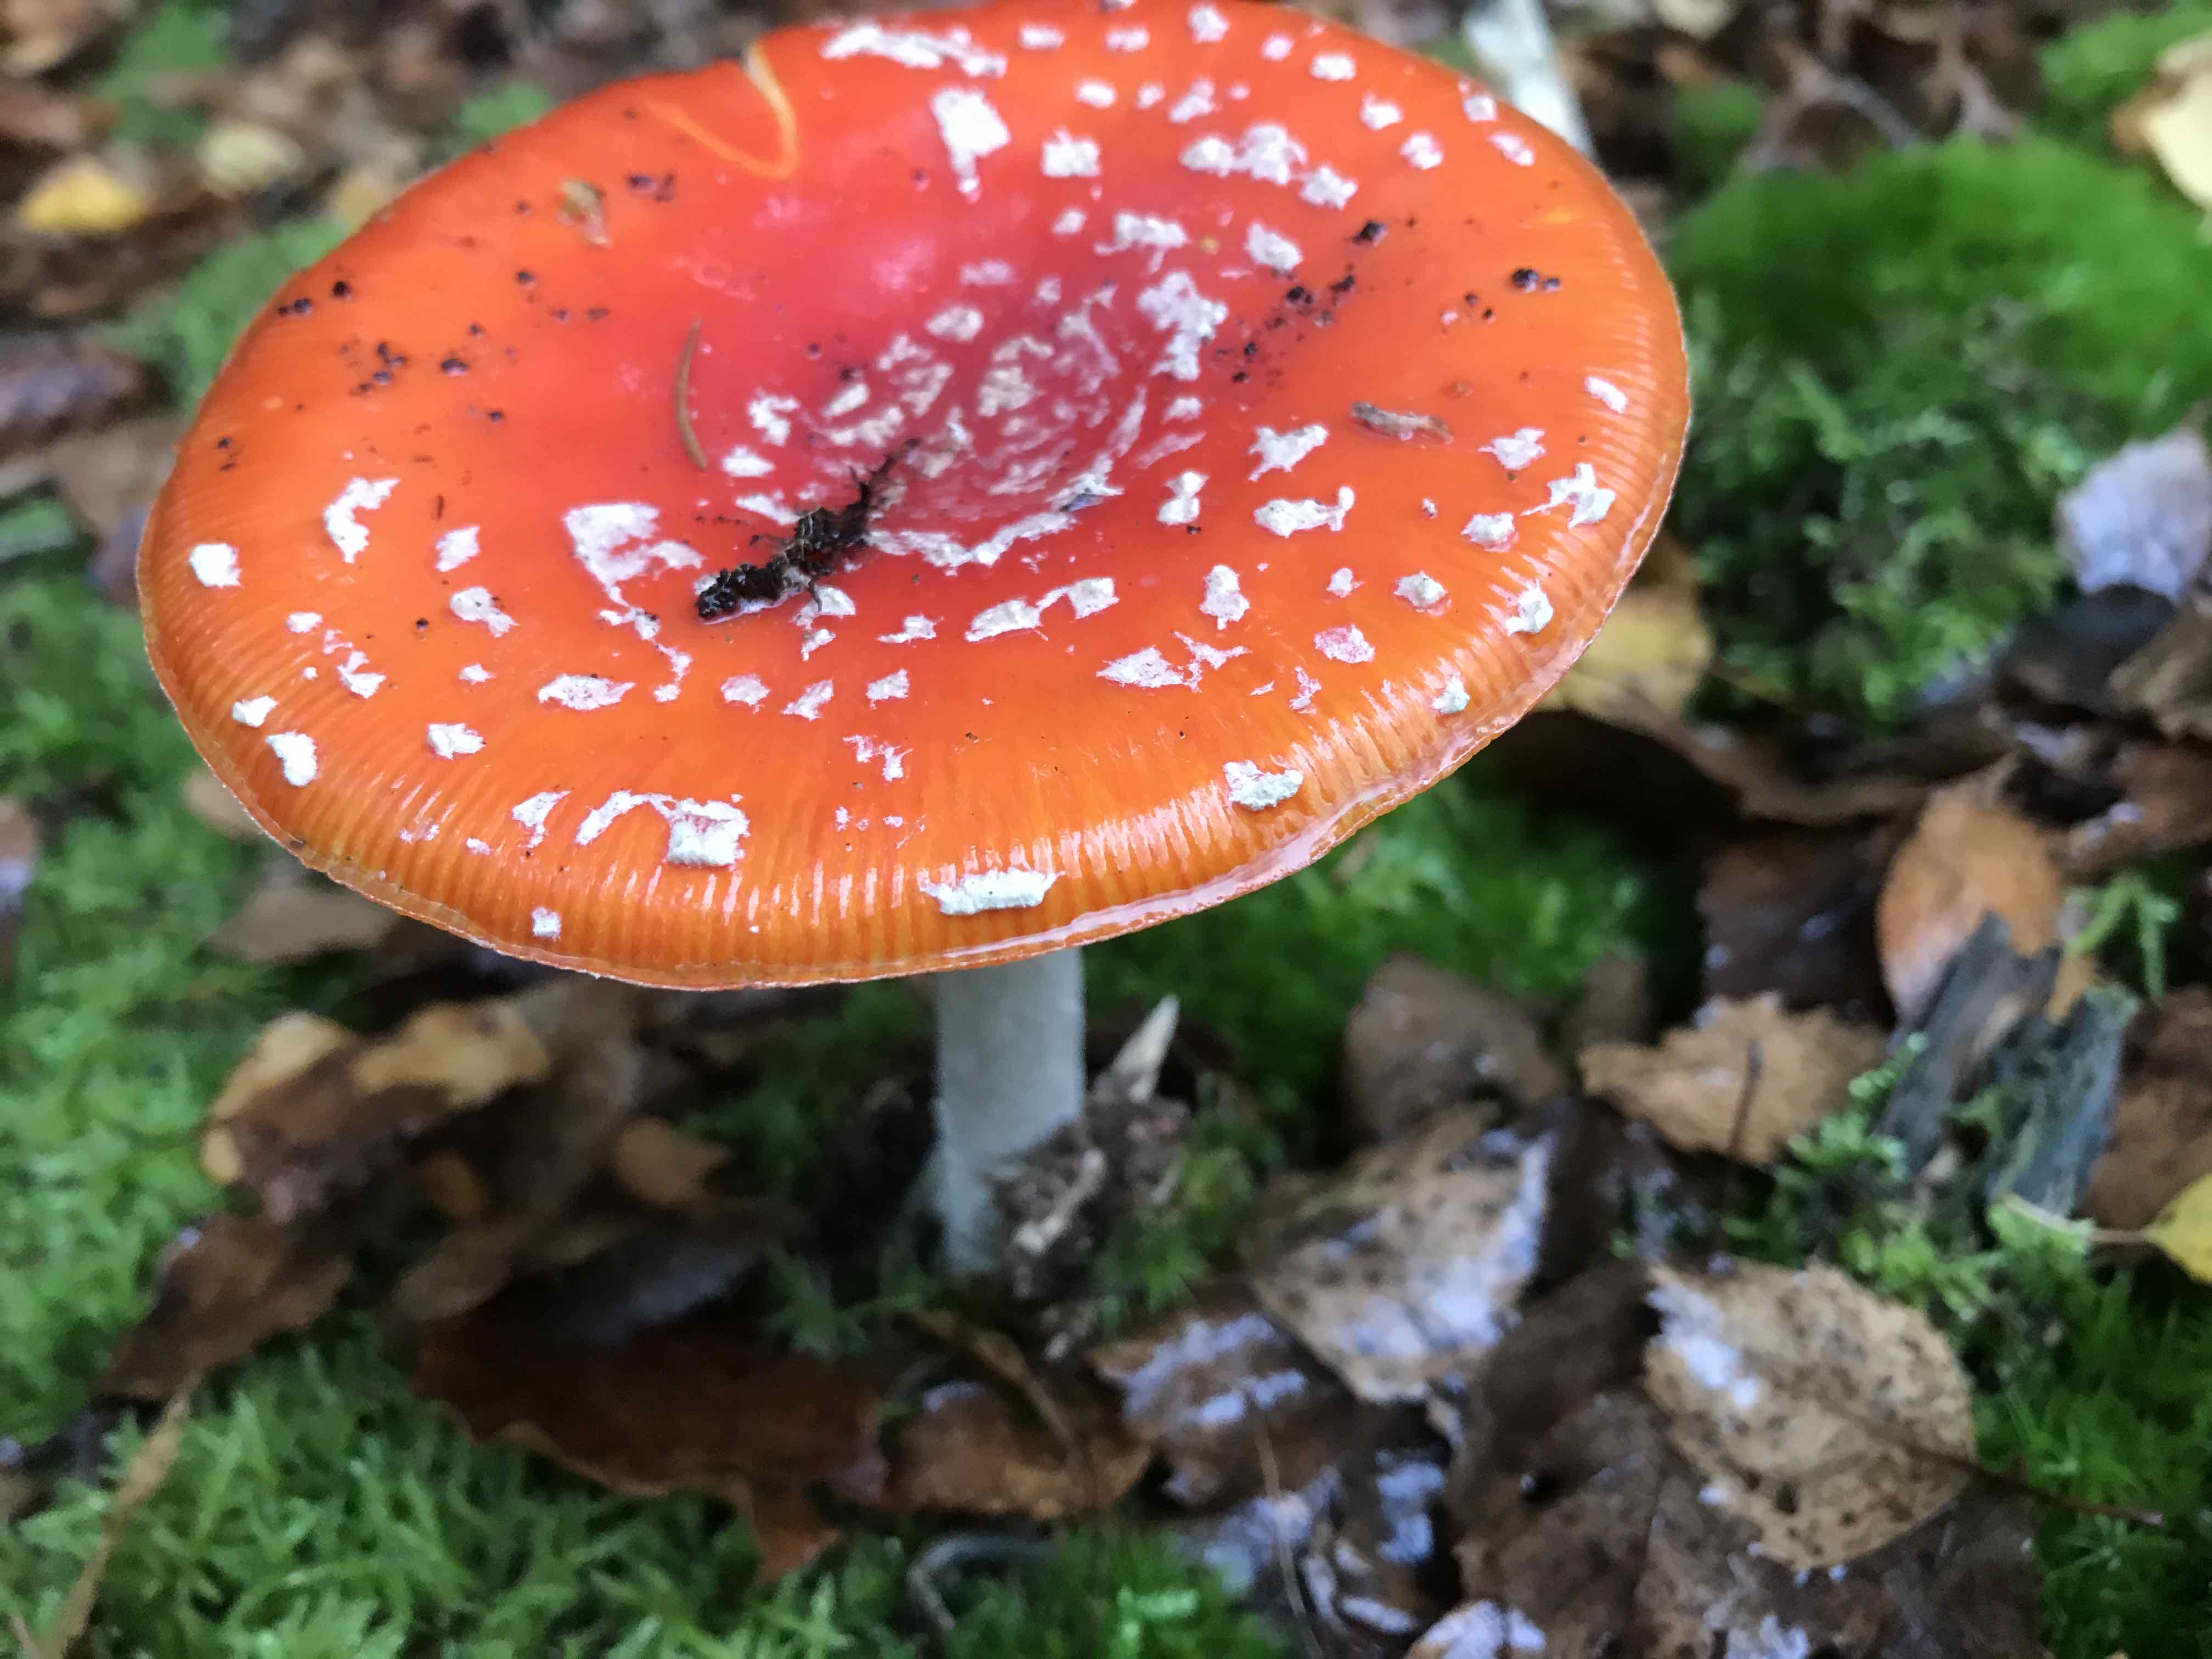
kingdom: Fungi
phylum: Basidiomycota
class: Agaricomycetes
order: Agaricales
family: Amanitaceae
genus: Amanita
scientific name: Amanita muscaria
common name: rød fluesvamp
